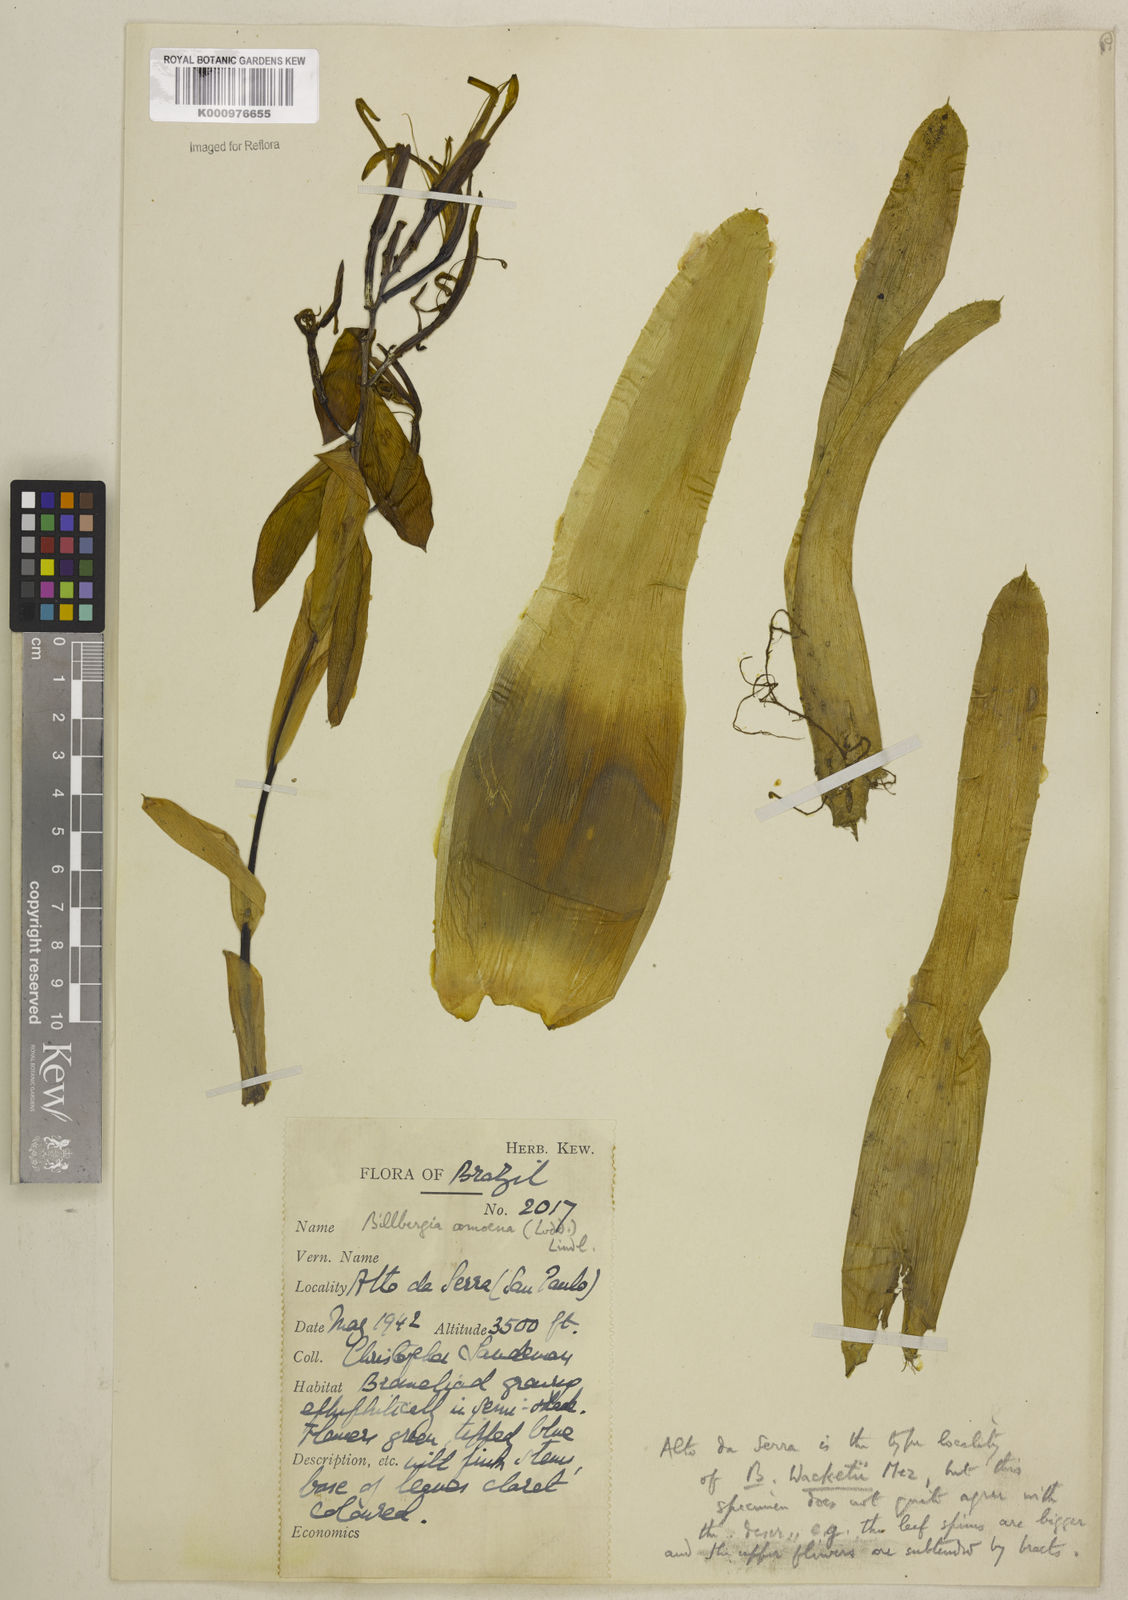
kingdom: Plantae
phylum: Tracheophyta
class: Liliopsida
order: Poales
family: Bromeliaceae
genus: Billbergia
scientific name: Billbergia amoena
